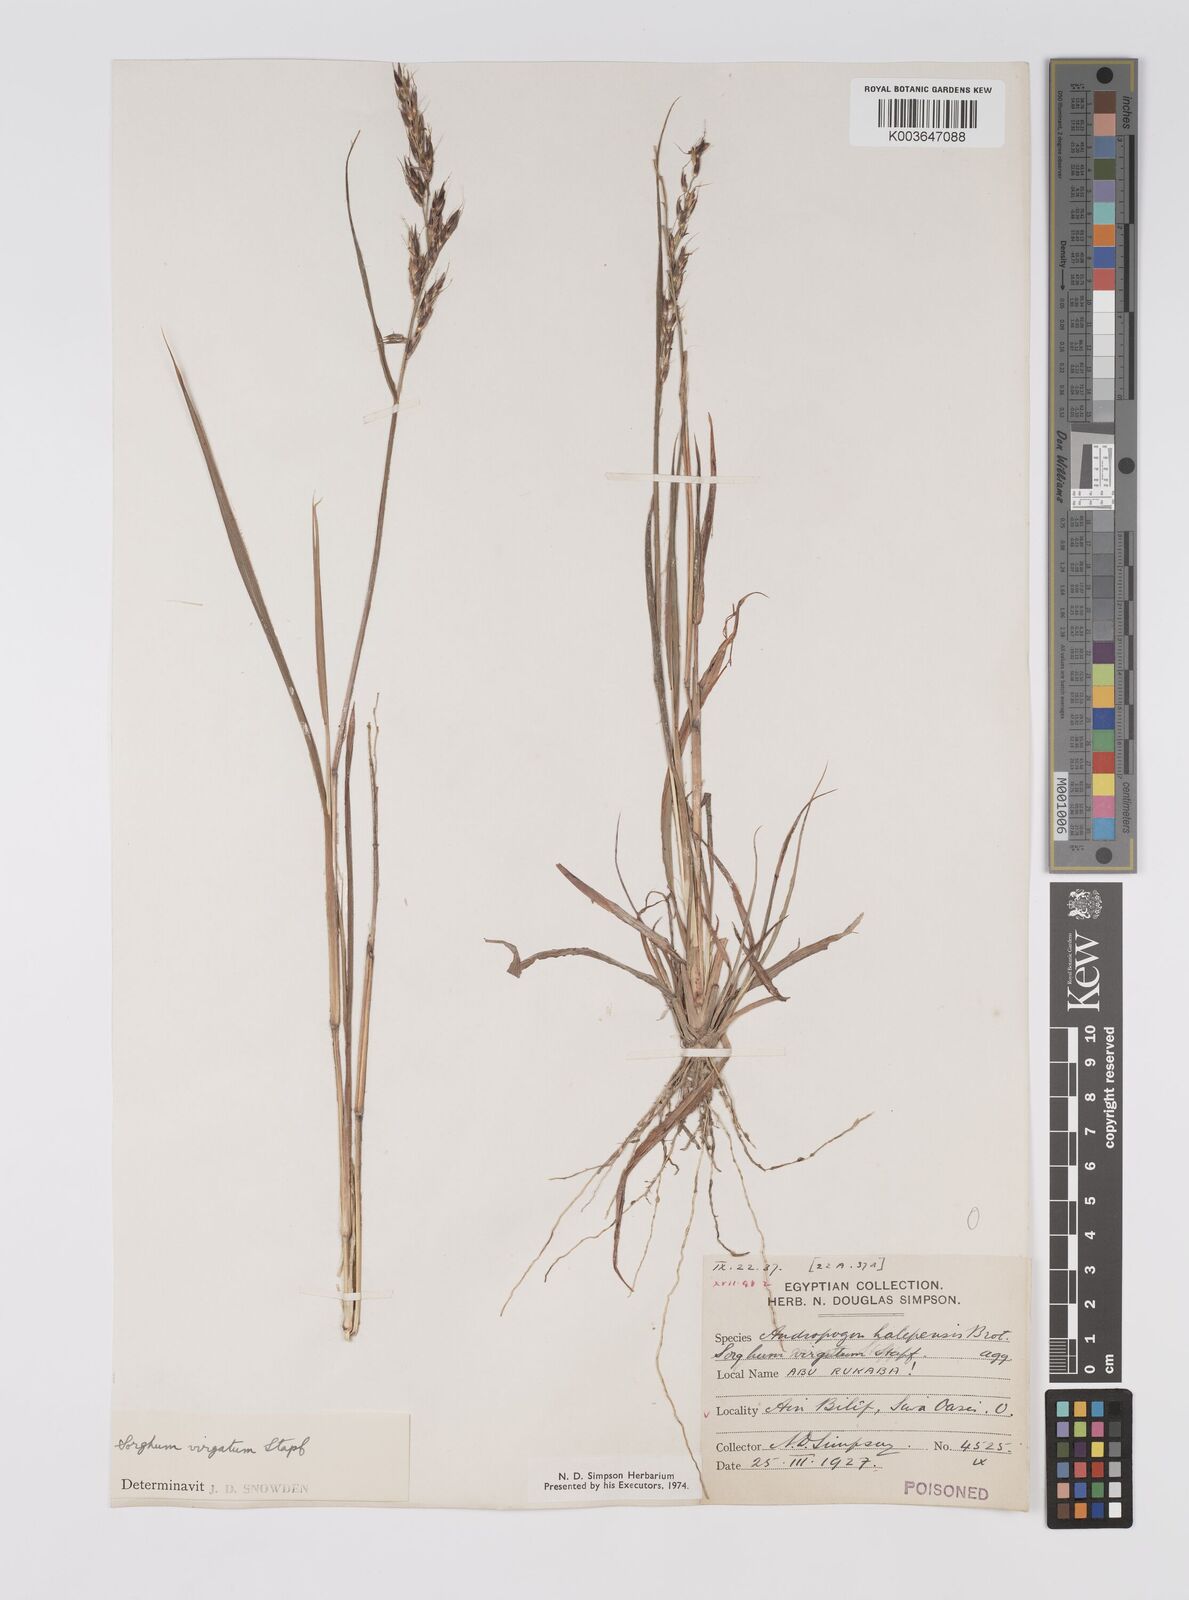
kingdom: Plantae
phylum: Tracheophyta
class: Liliopsida
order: Poales
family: Poaceae
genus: Sorghum
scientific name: Sorghum virgatum
